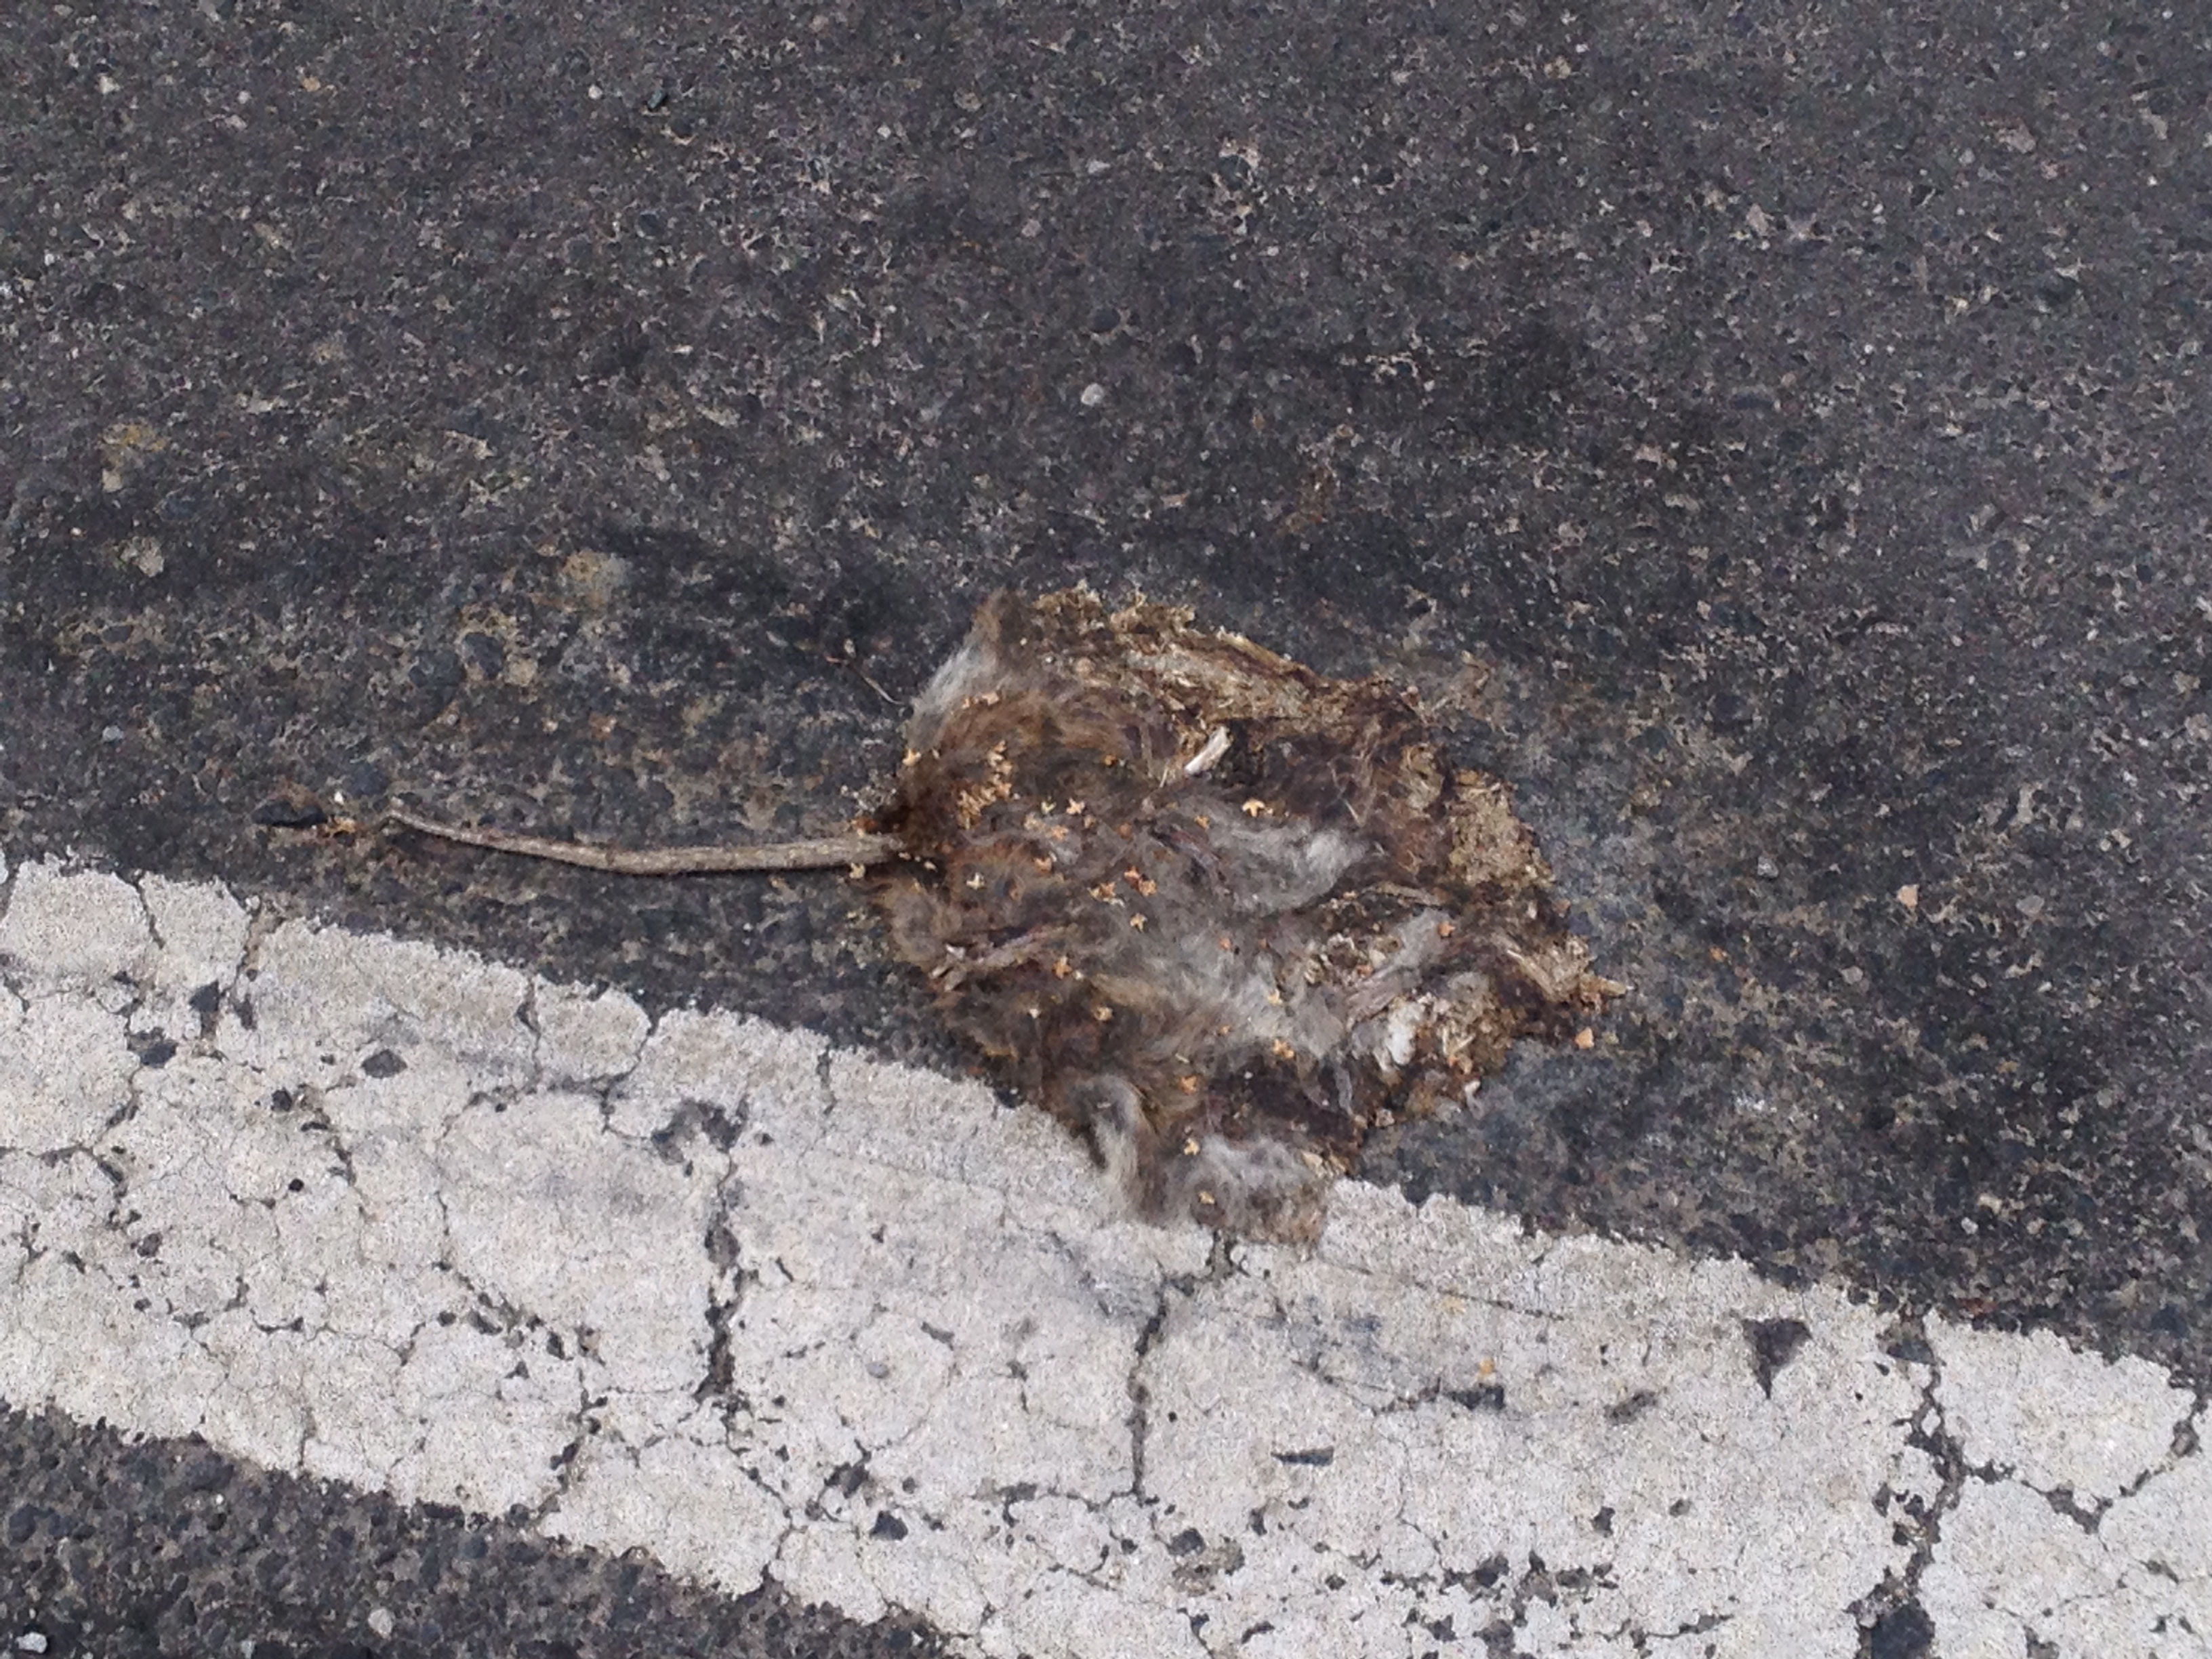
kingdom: Animalia
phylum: Chordata
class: Mammalia
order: Rodentia
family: Muridae
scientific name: Muridae
